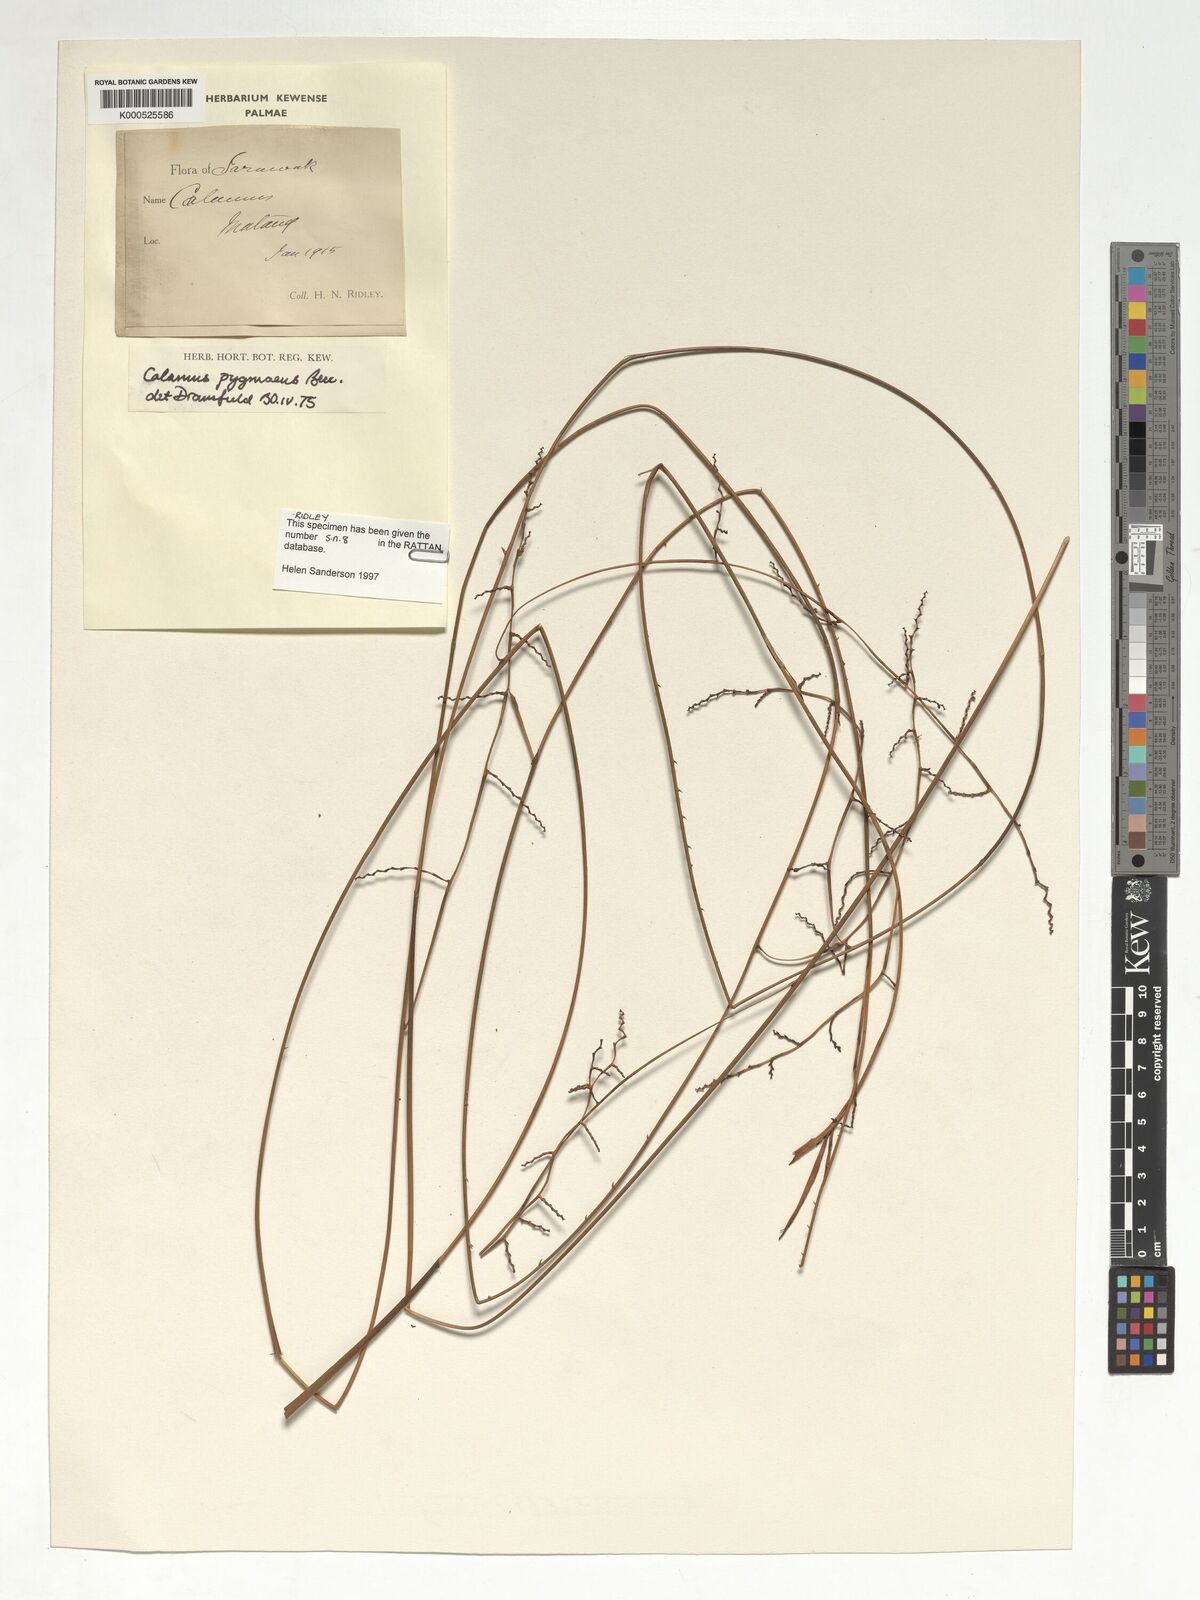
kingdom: Plantae
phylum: Tracheophyta
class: Liliopsida
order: Arecales
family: Arecaceae
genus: Calamus
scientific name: Calamus pygmaeus
